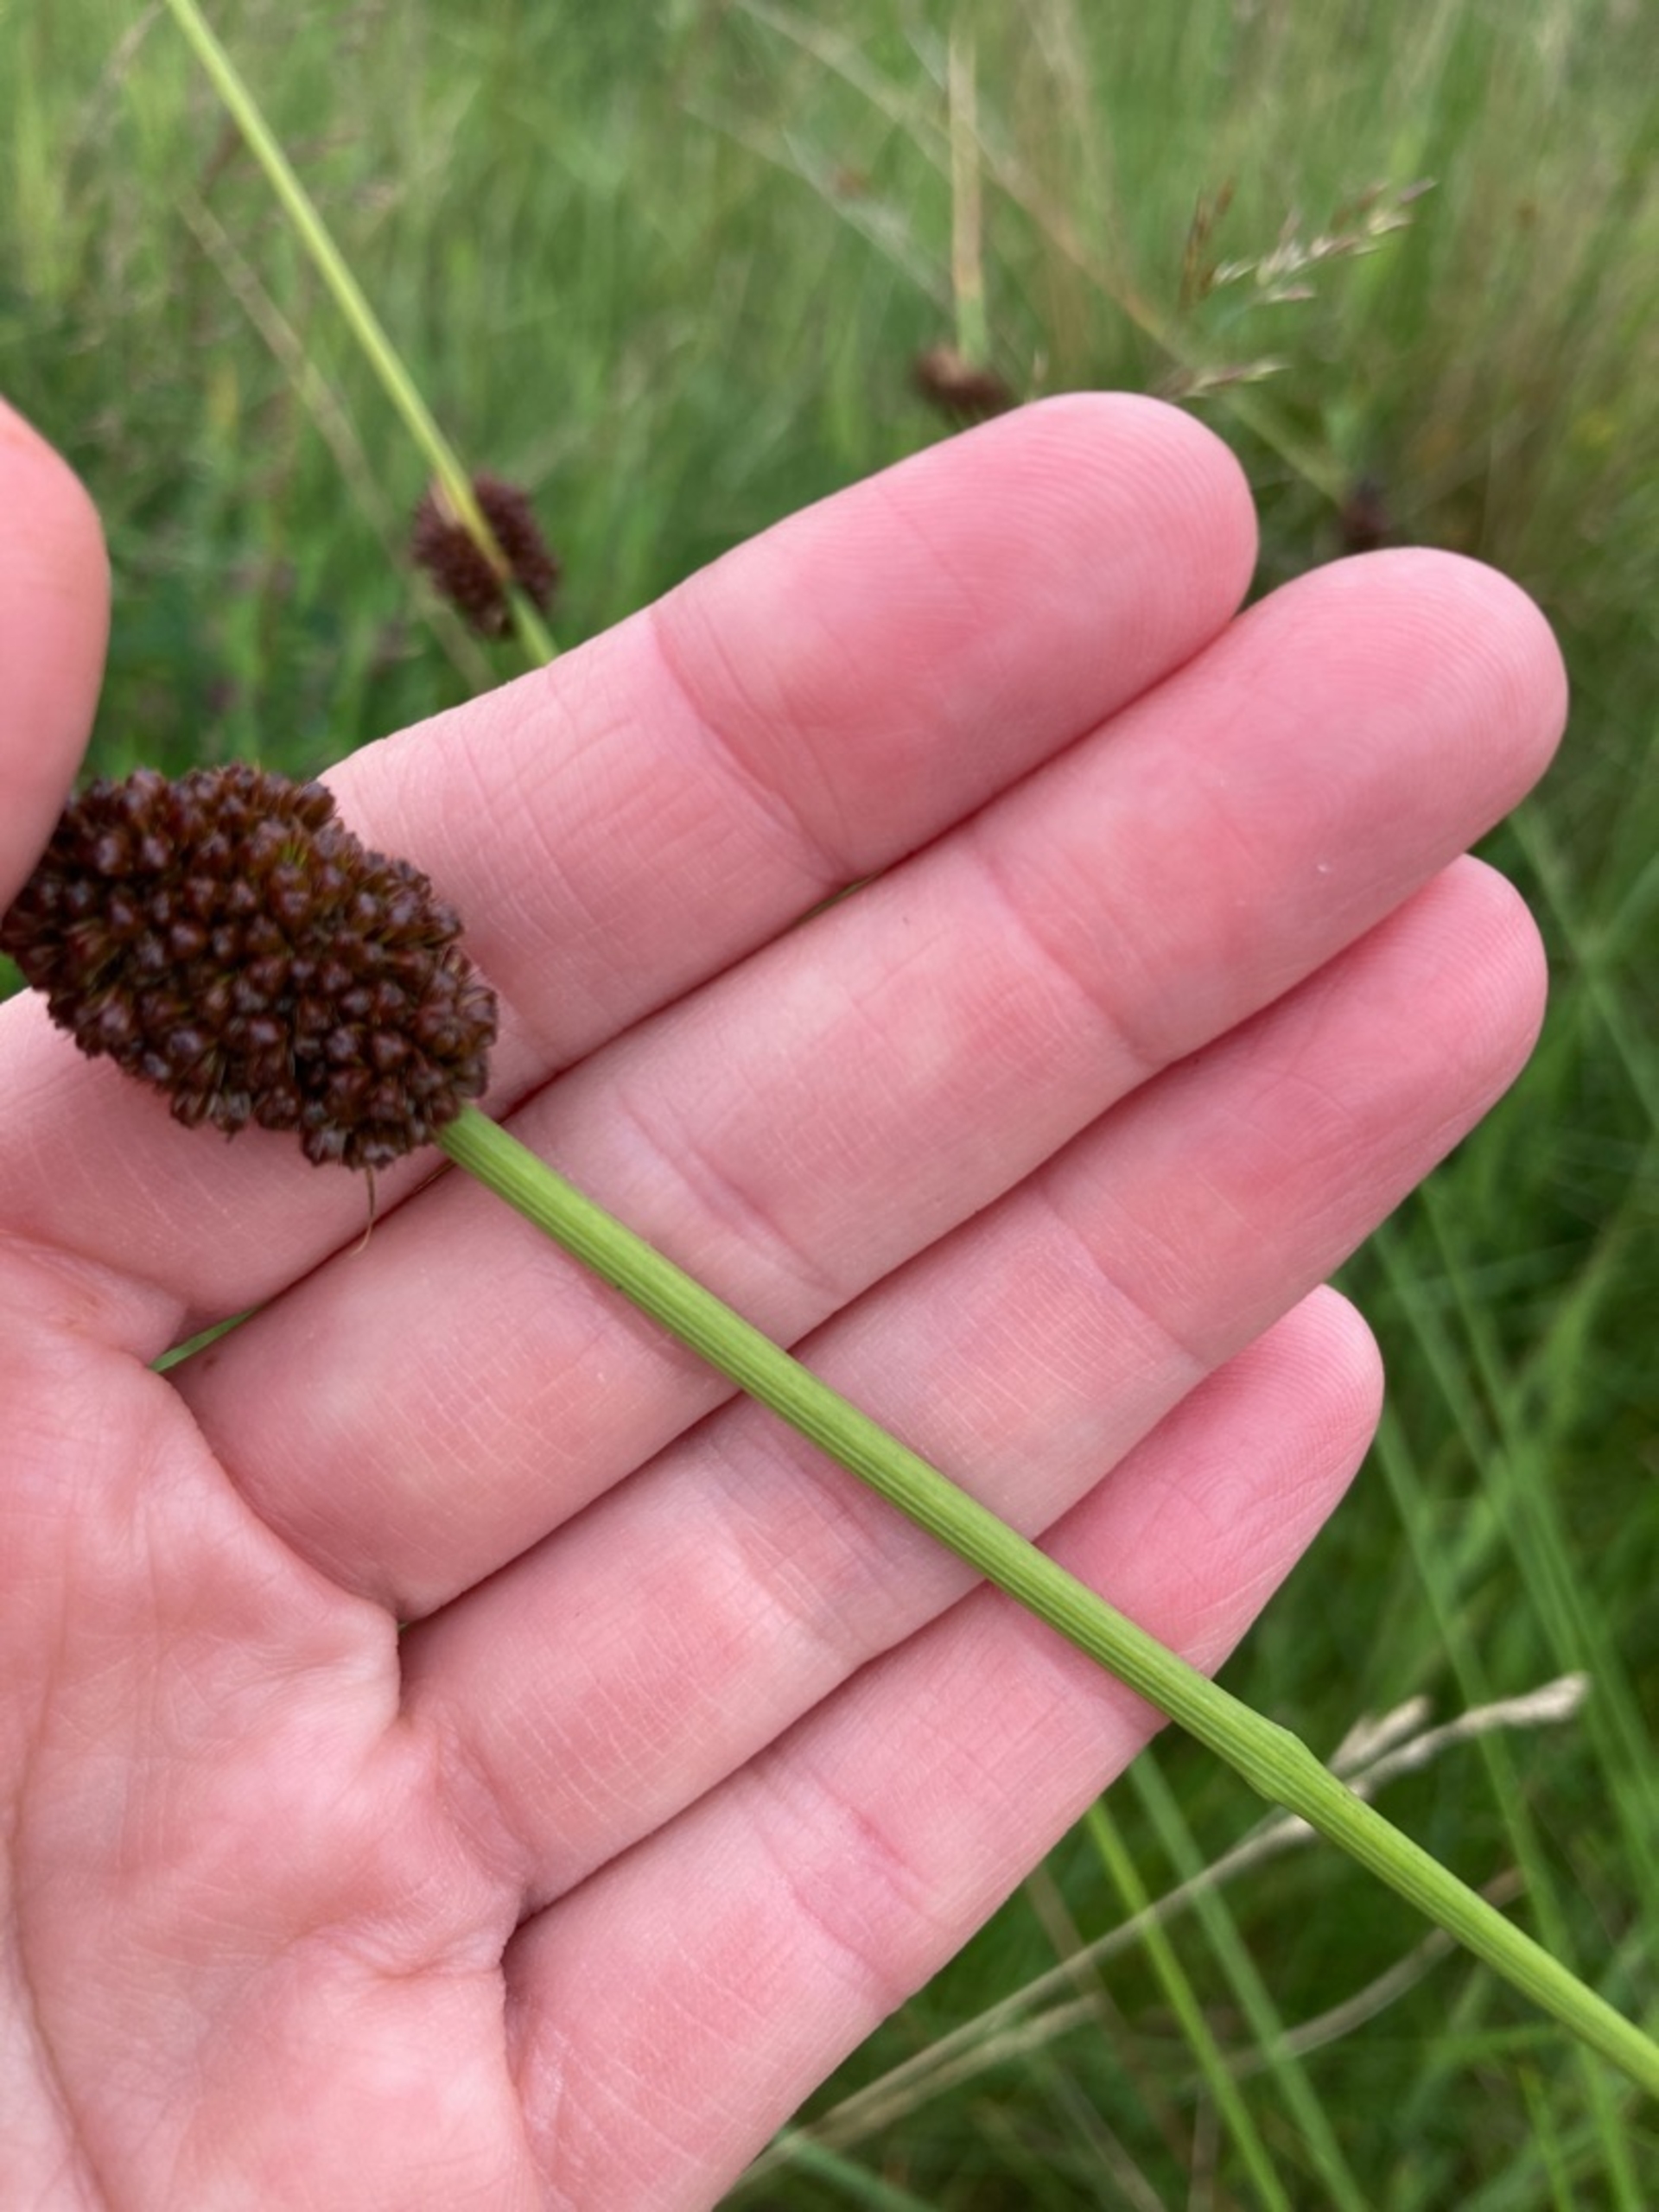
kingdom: Plantae
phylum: Tracheophyta
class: Liliopsida
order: Poales
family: Juncaceae
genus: Juncus
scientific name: Juncus conglomeratus
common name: Knop-siv
